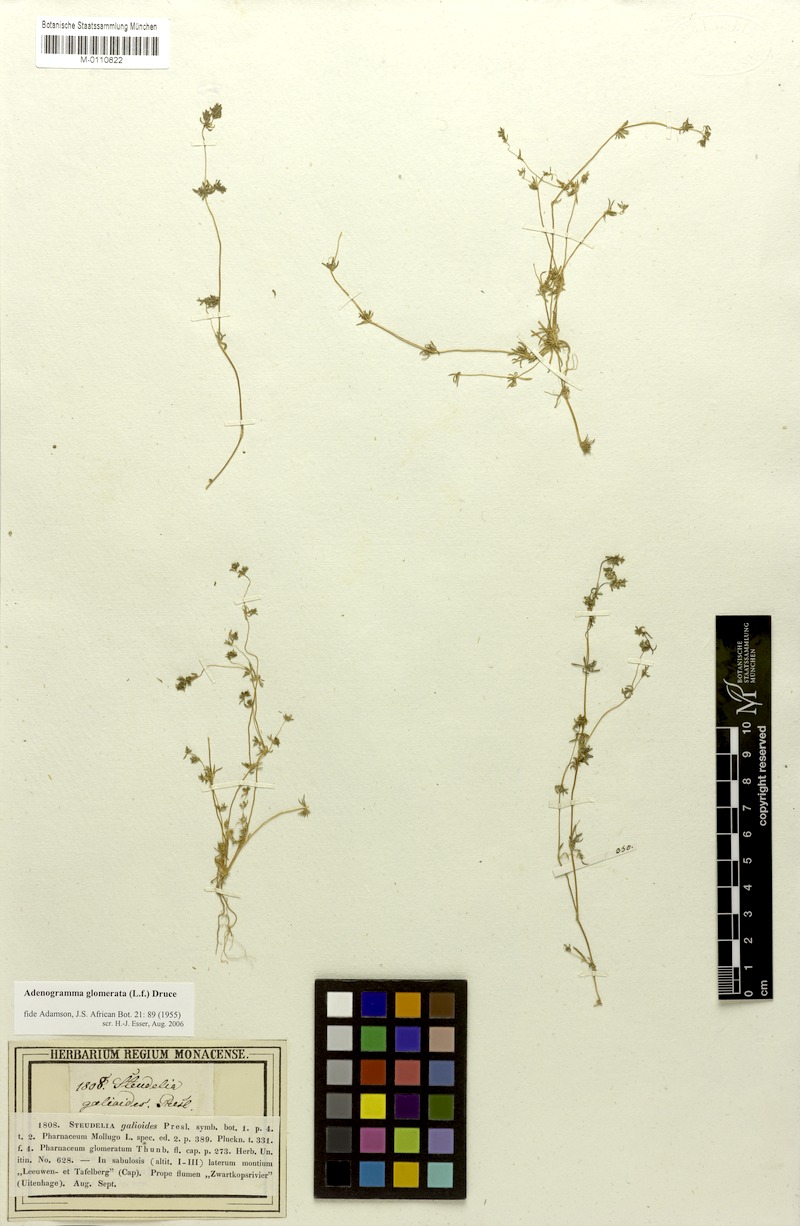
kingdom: Plantae
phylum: Tracheophyta
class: Magnoliopsida
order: Caryophyllales
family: Molluginaceae
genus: Adenogramma
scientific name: Adenogramma glomerata
